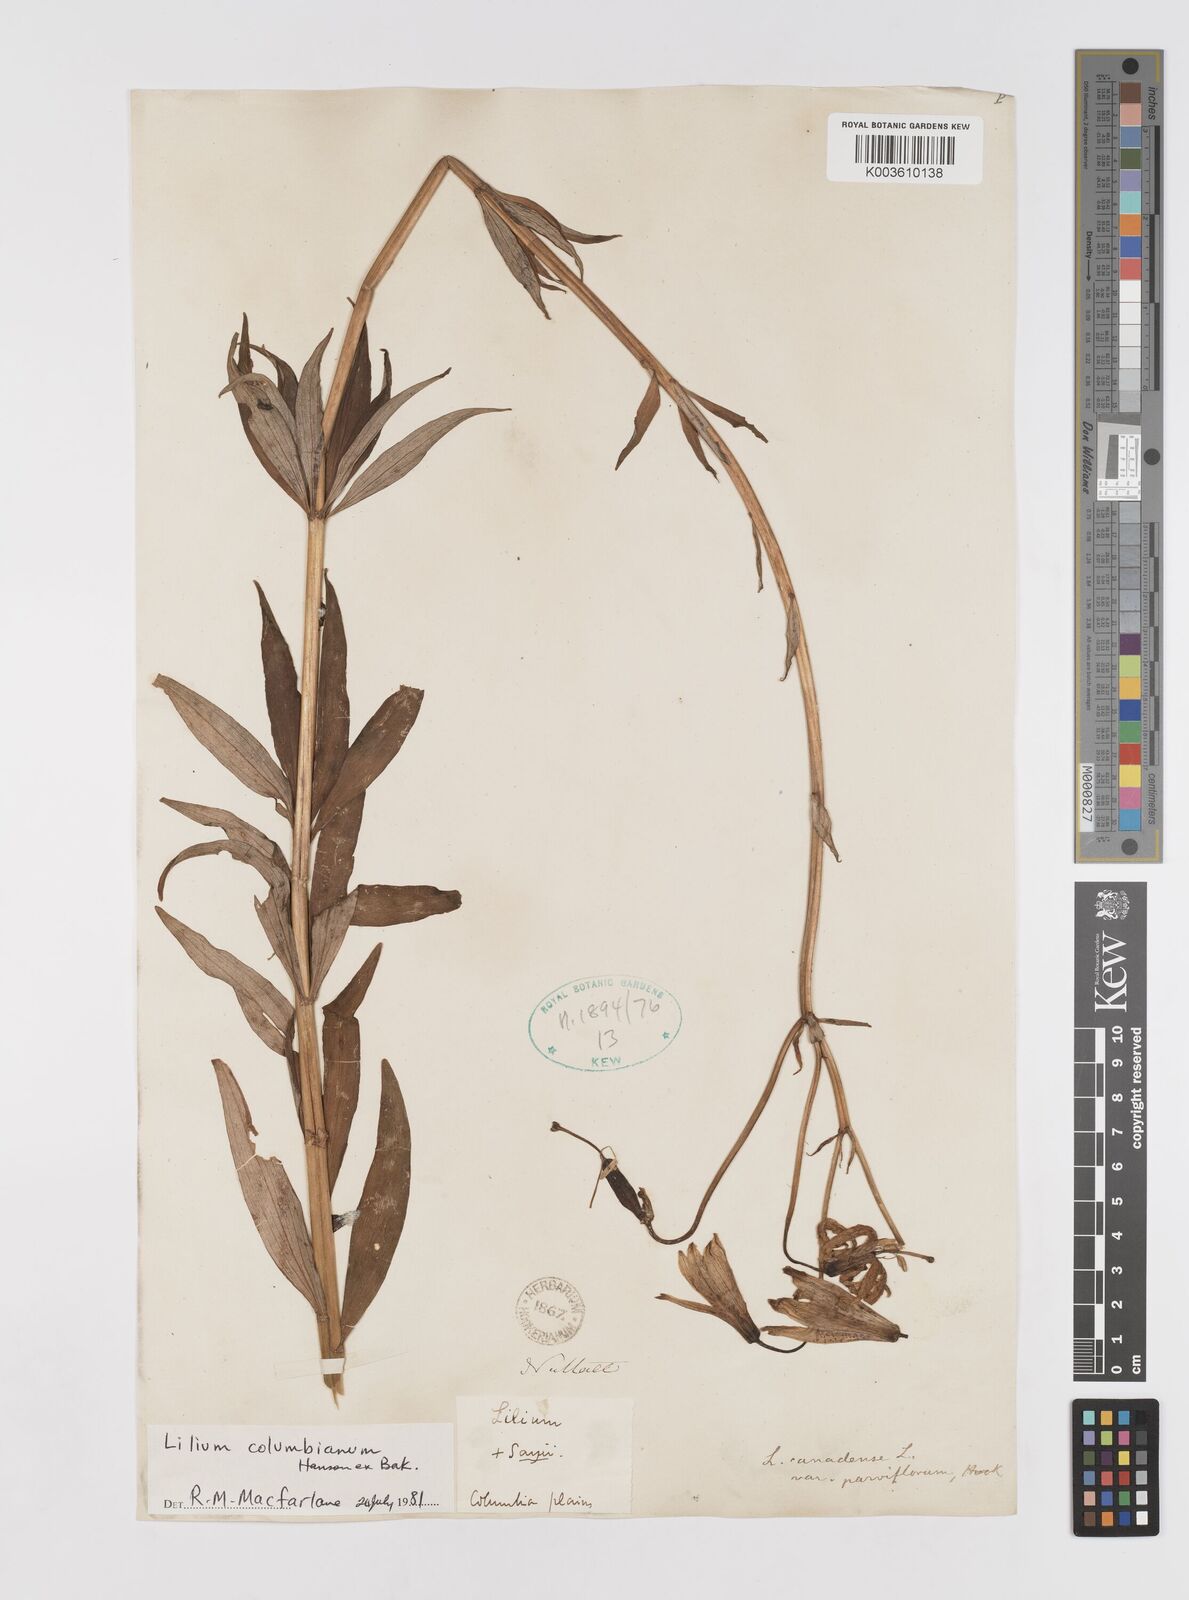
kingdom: Plantae
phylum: Tracheophyta
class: Liliopsida
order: Liliales
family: Liliaceae
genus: Lilium
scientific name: Lilium columbianum
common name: Columbia lily
